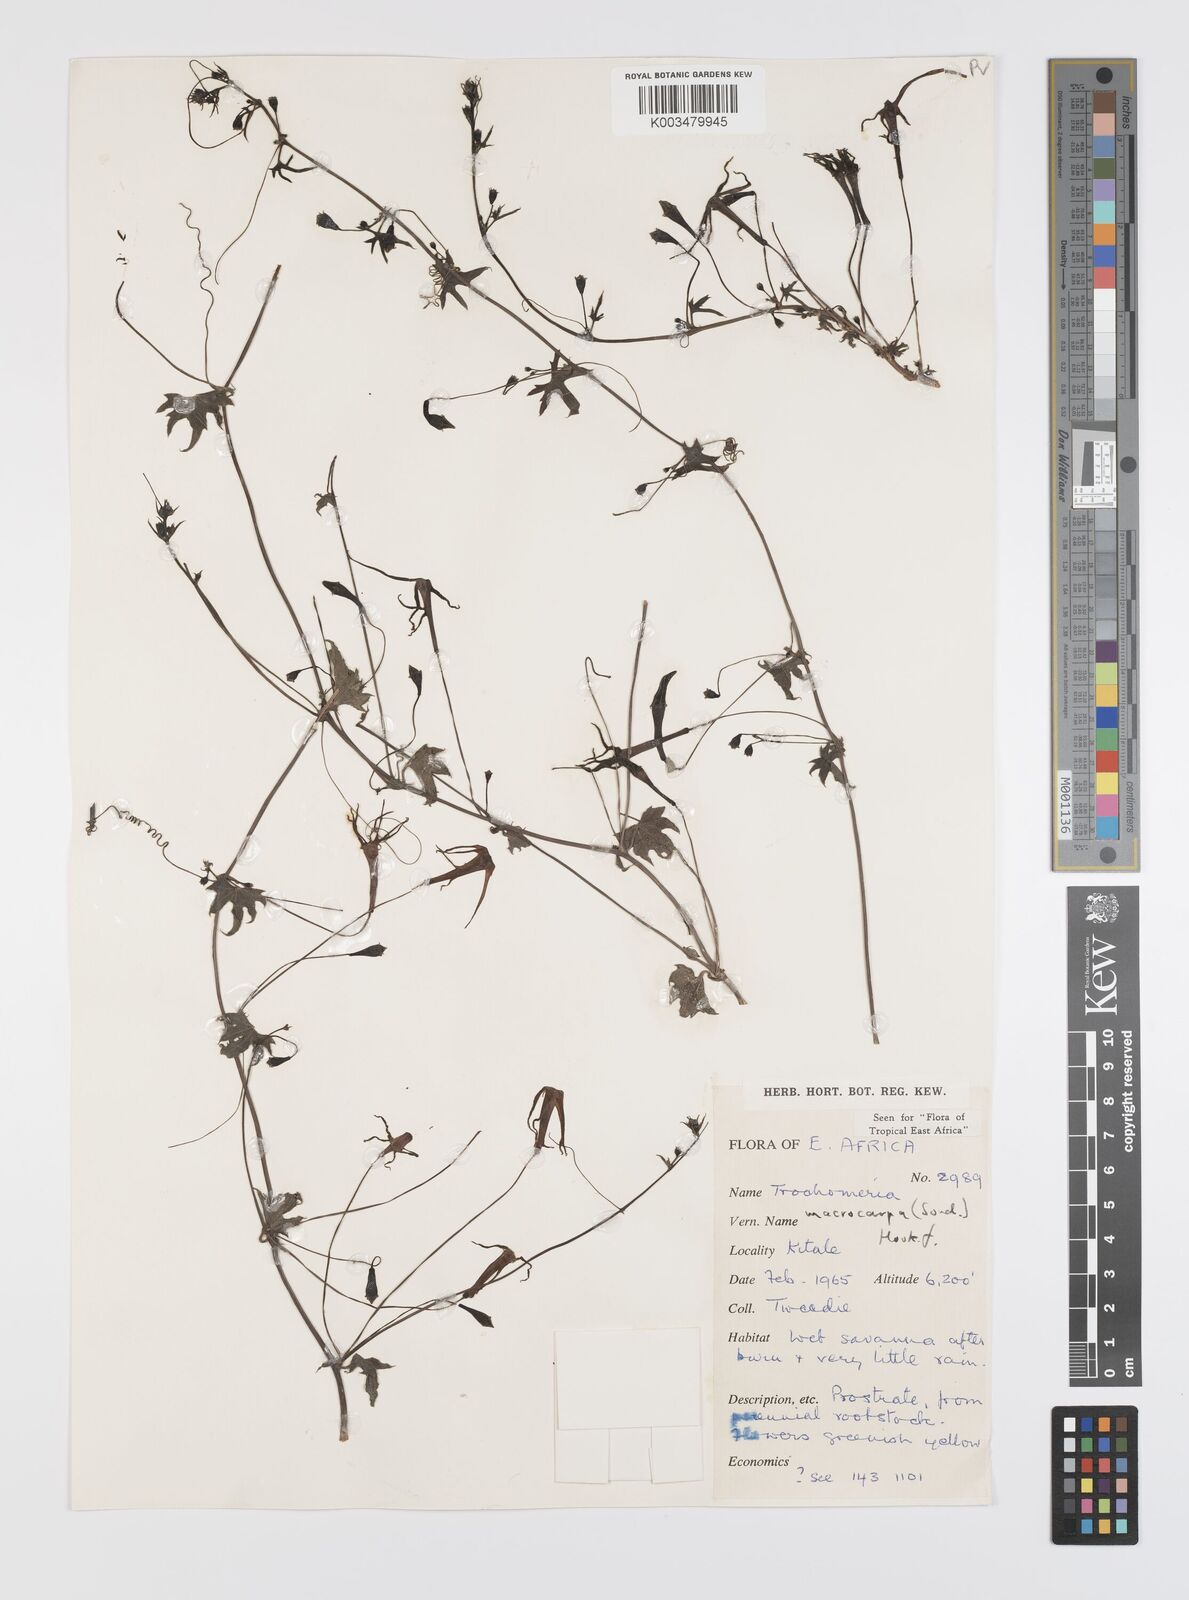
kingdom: Plantae
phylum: Tracheophyta
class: Magnoliopsida
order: Cucurbitales
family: Cucurbitaceae
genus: Trochomeria
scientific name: Trochomeria macrocarpa
